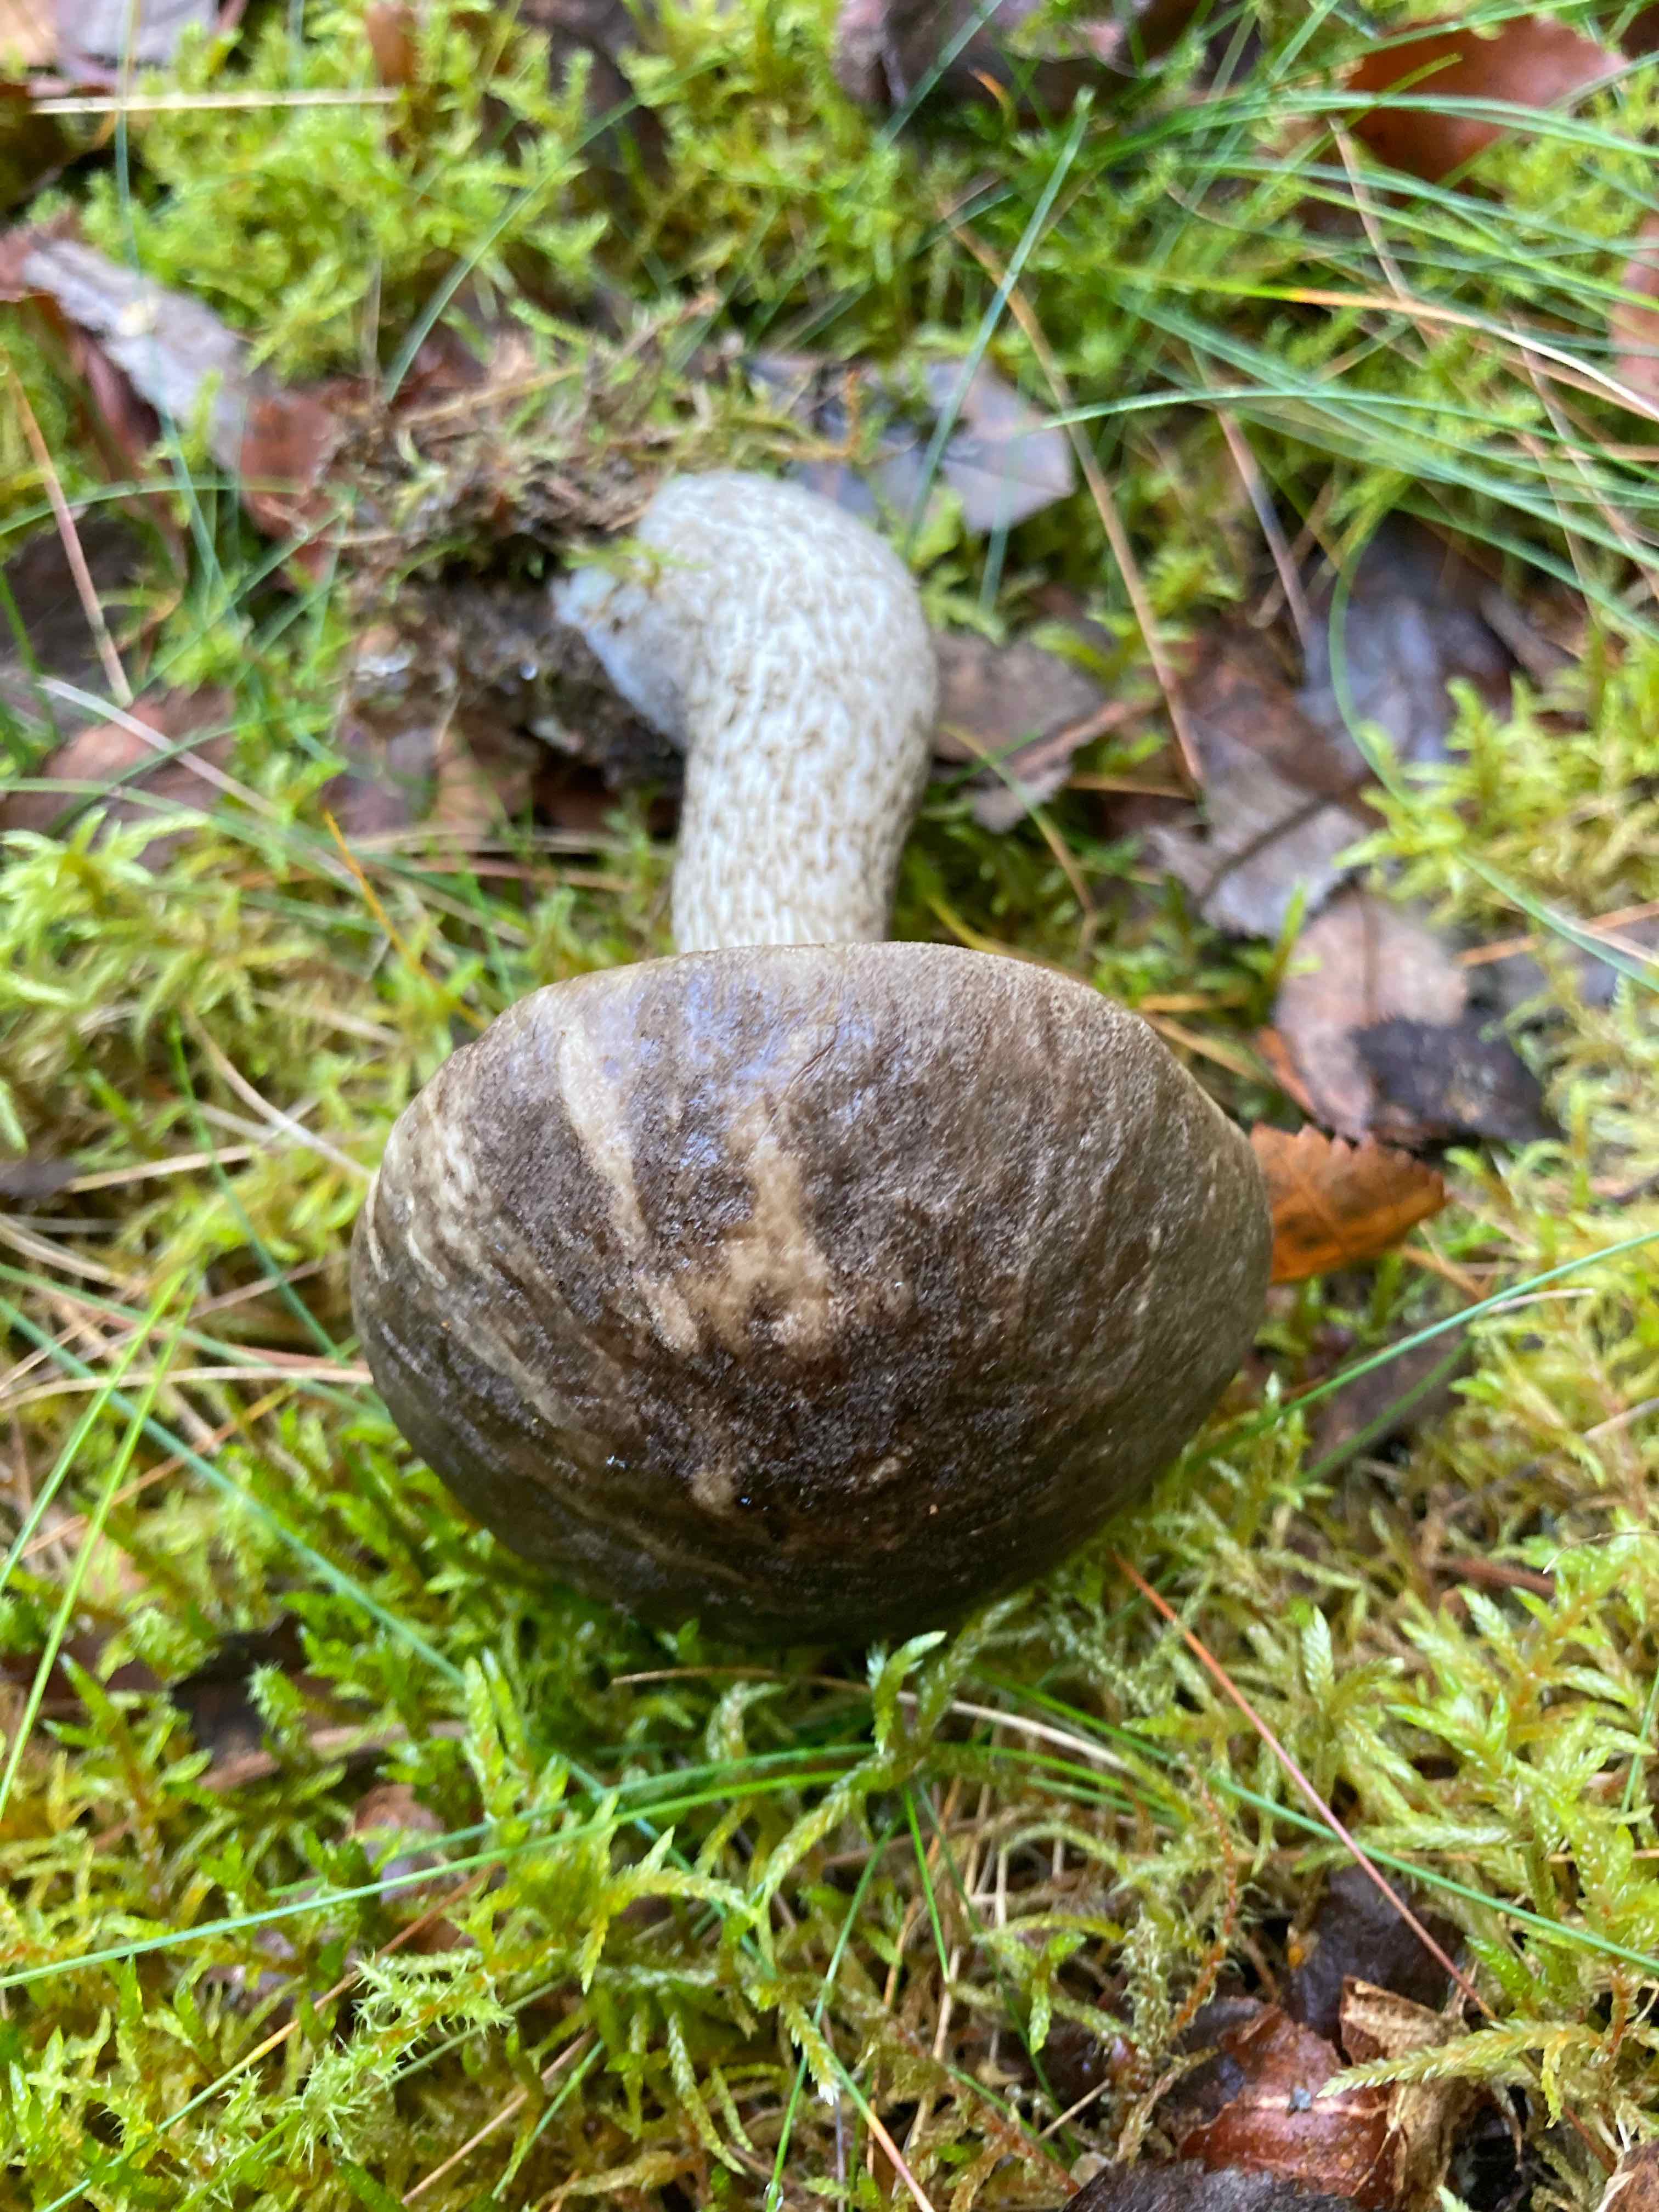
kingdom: Fungi
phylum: Basidiomycota
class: Agaricomycetes
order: Boletales
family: Boletaceae
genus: Leccinum
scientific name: Leccinum variicolor
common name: flammet skælrørhat
